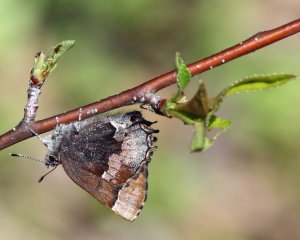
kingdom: Animalia
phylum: Arthropoda
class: Insecta
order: Lepidoptera
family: Lycaenidae
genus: Incisalia
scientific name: Incisalia henrici
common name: Henry's Elfin
